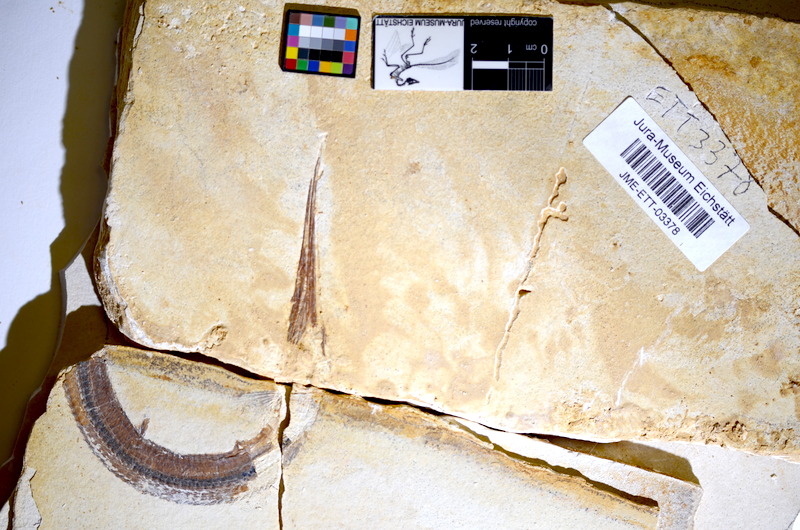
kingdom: Animalia
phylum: Chordata
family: Aspidorhynchidae
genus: Belonostomus
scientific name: Belonostomus kochii
